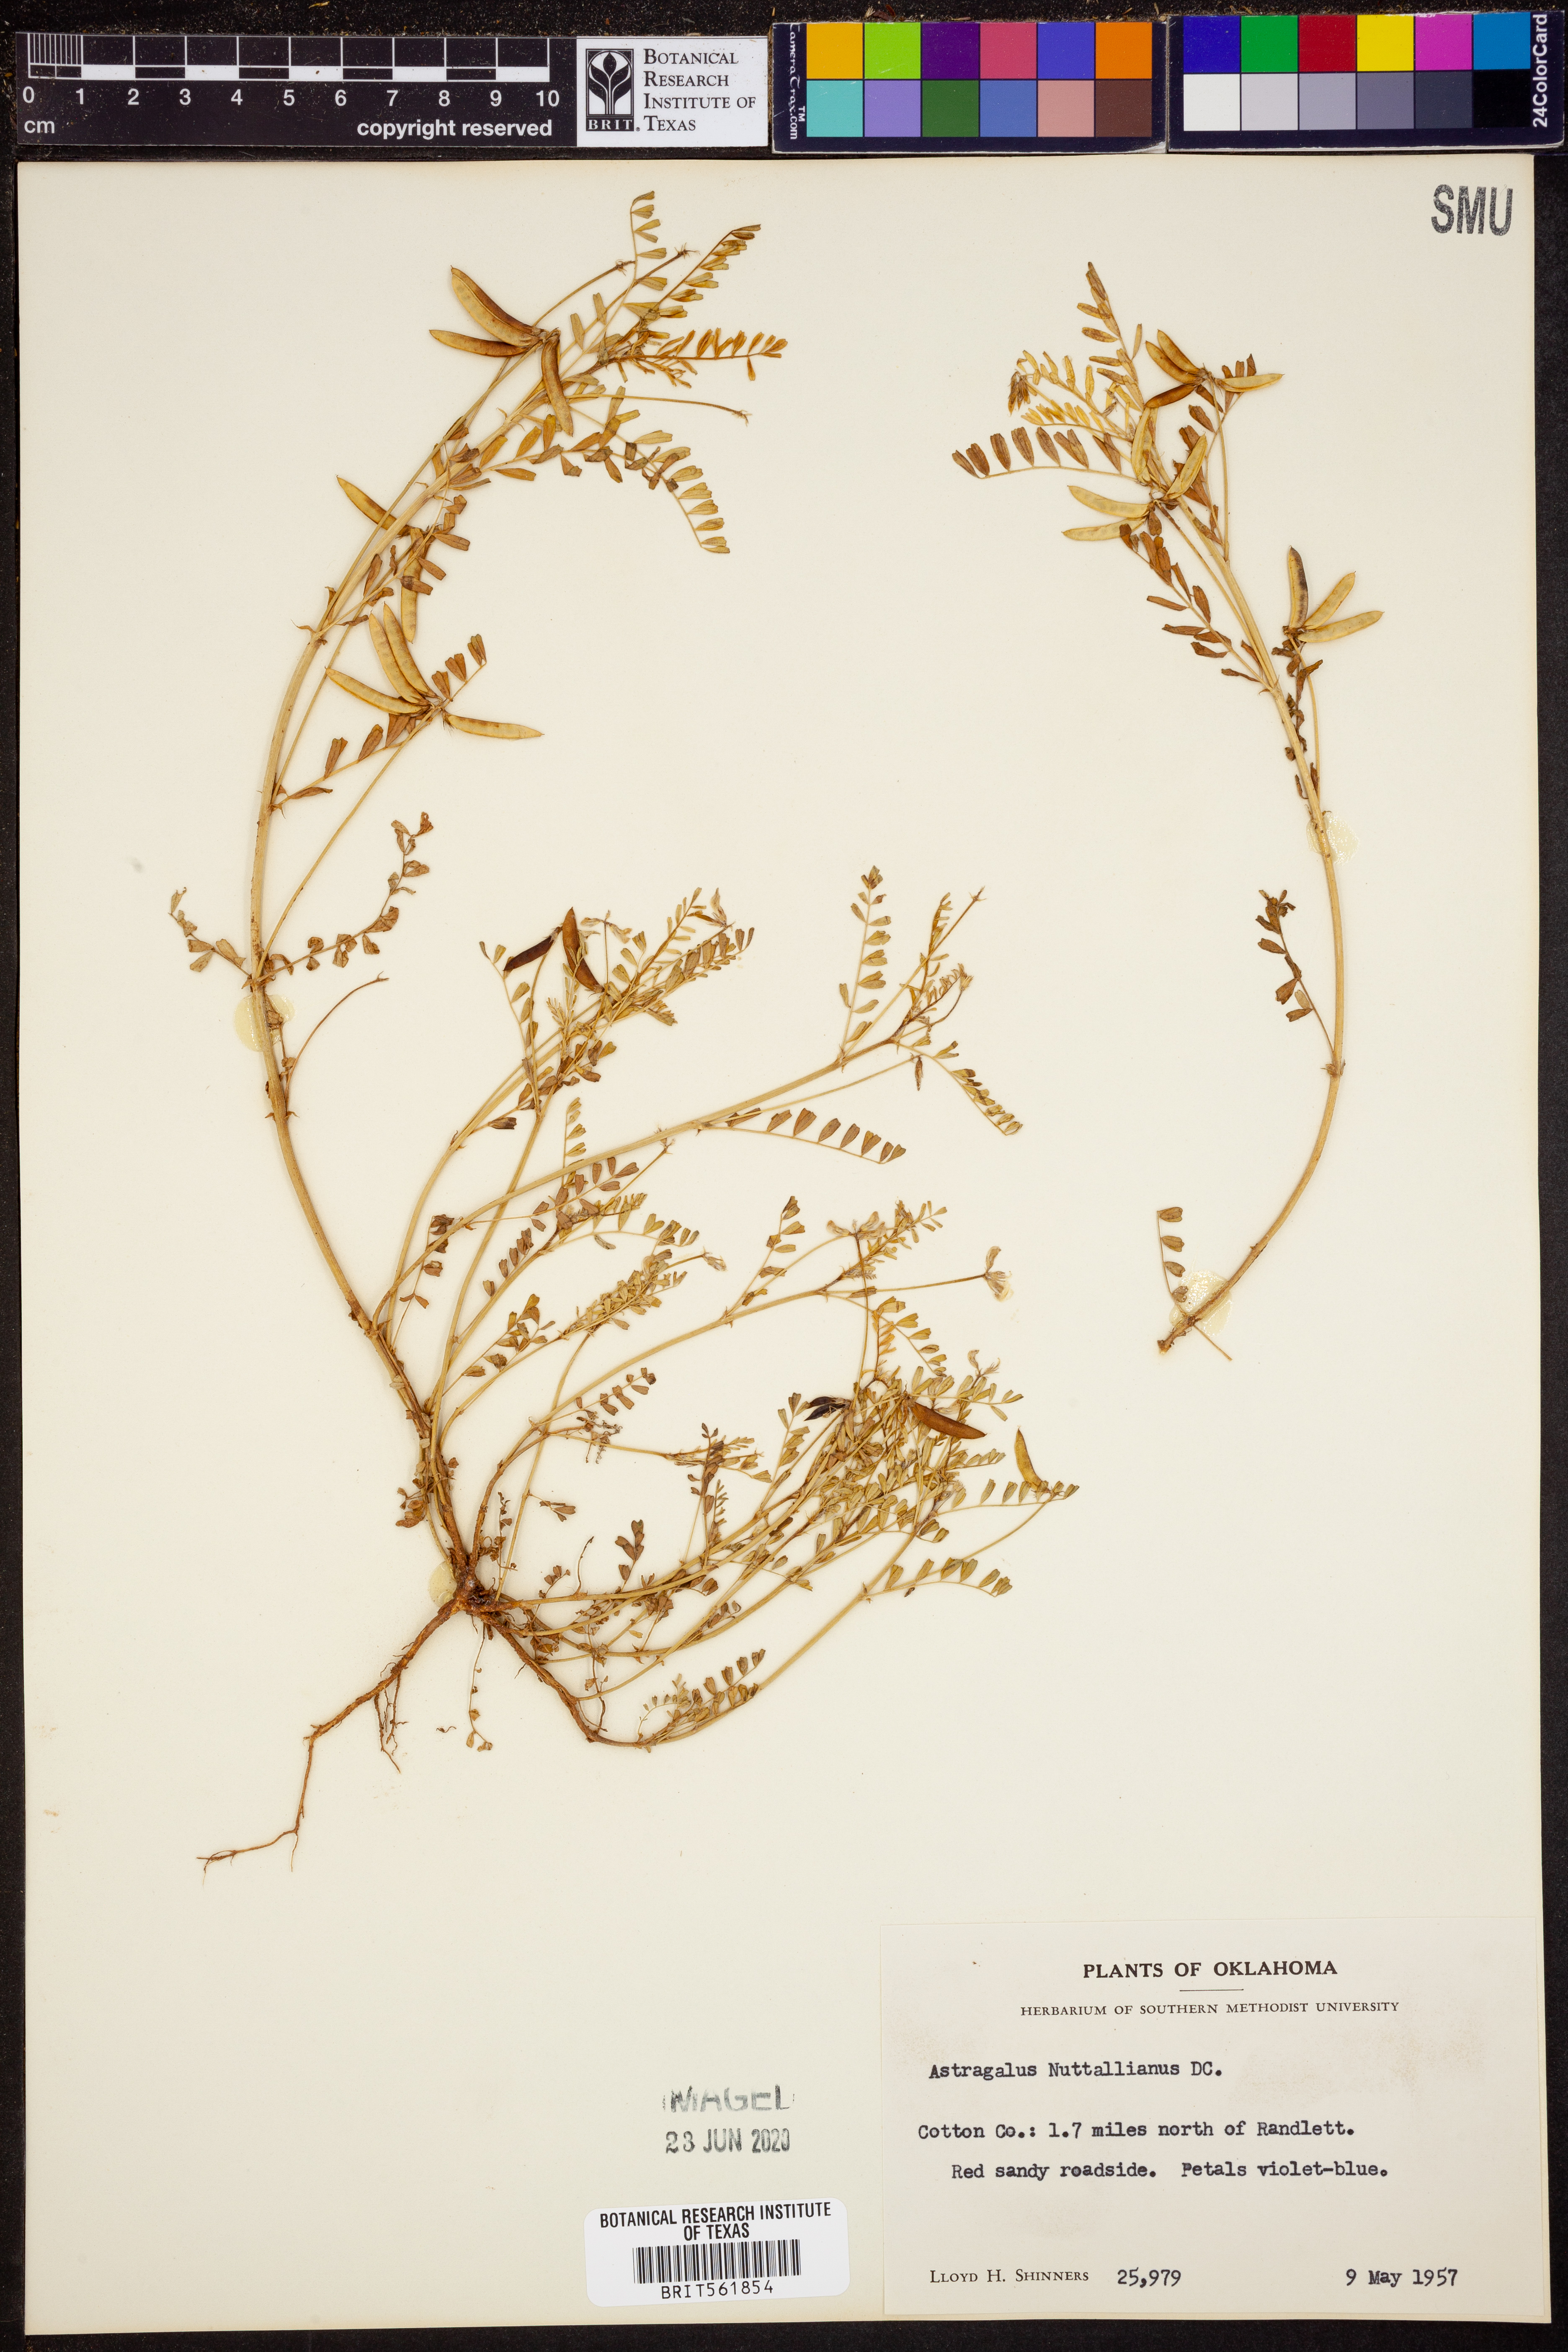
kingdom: Plantae
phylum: Tracheophyta
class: Magnoliopsida
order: Fabales
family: Fabaceae
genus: Astragalus
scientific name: Astragalus nuttallianus
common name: Smallflowered milkvetch
